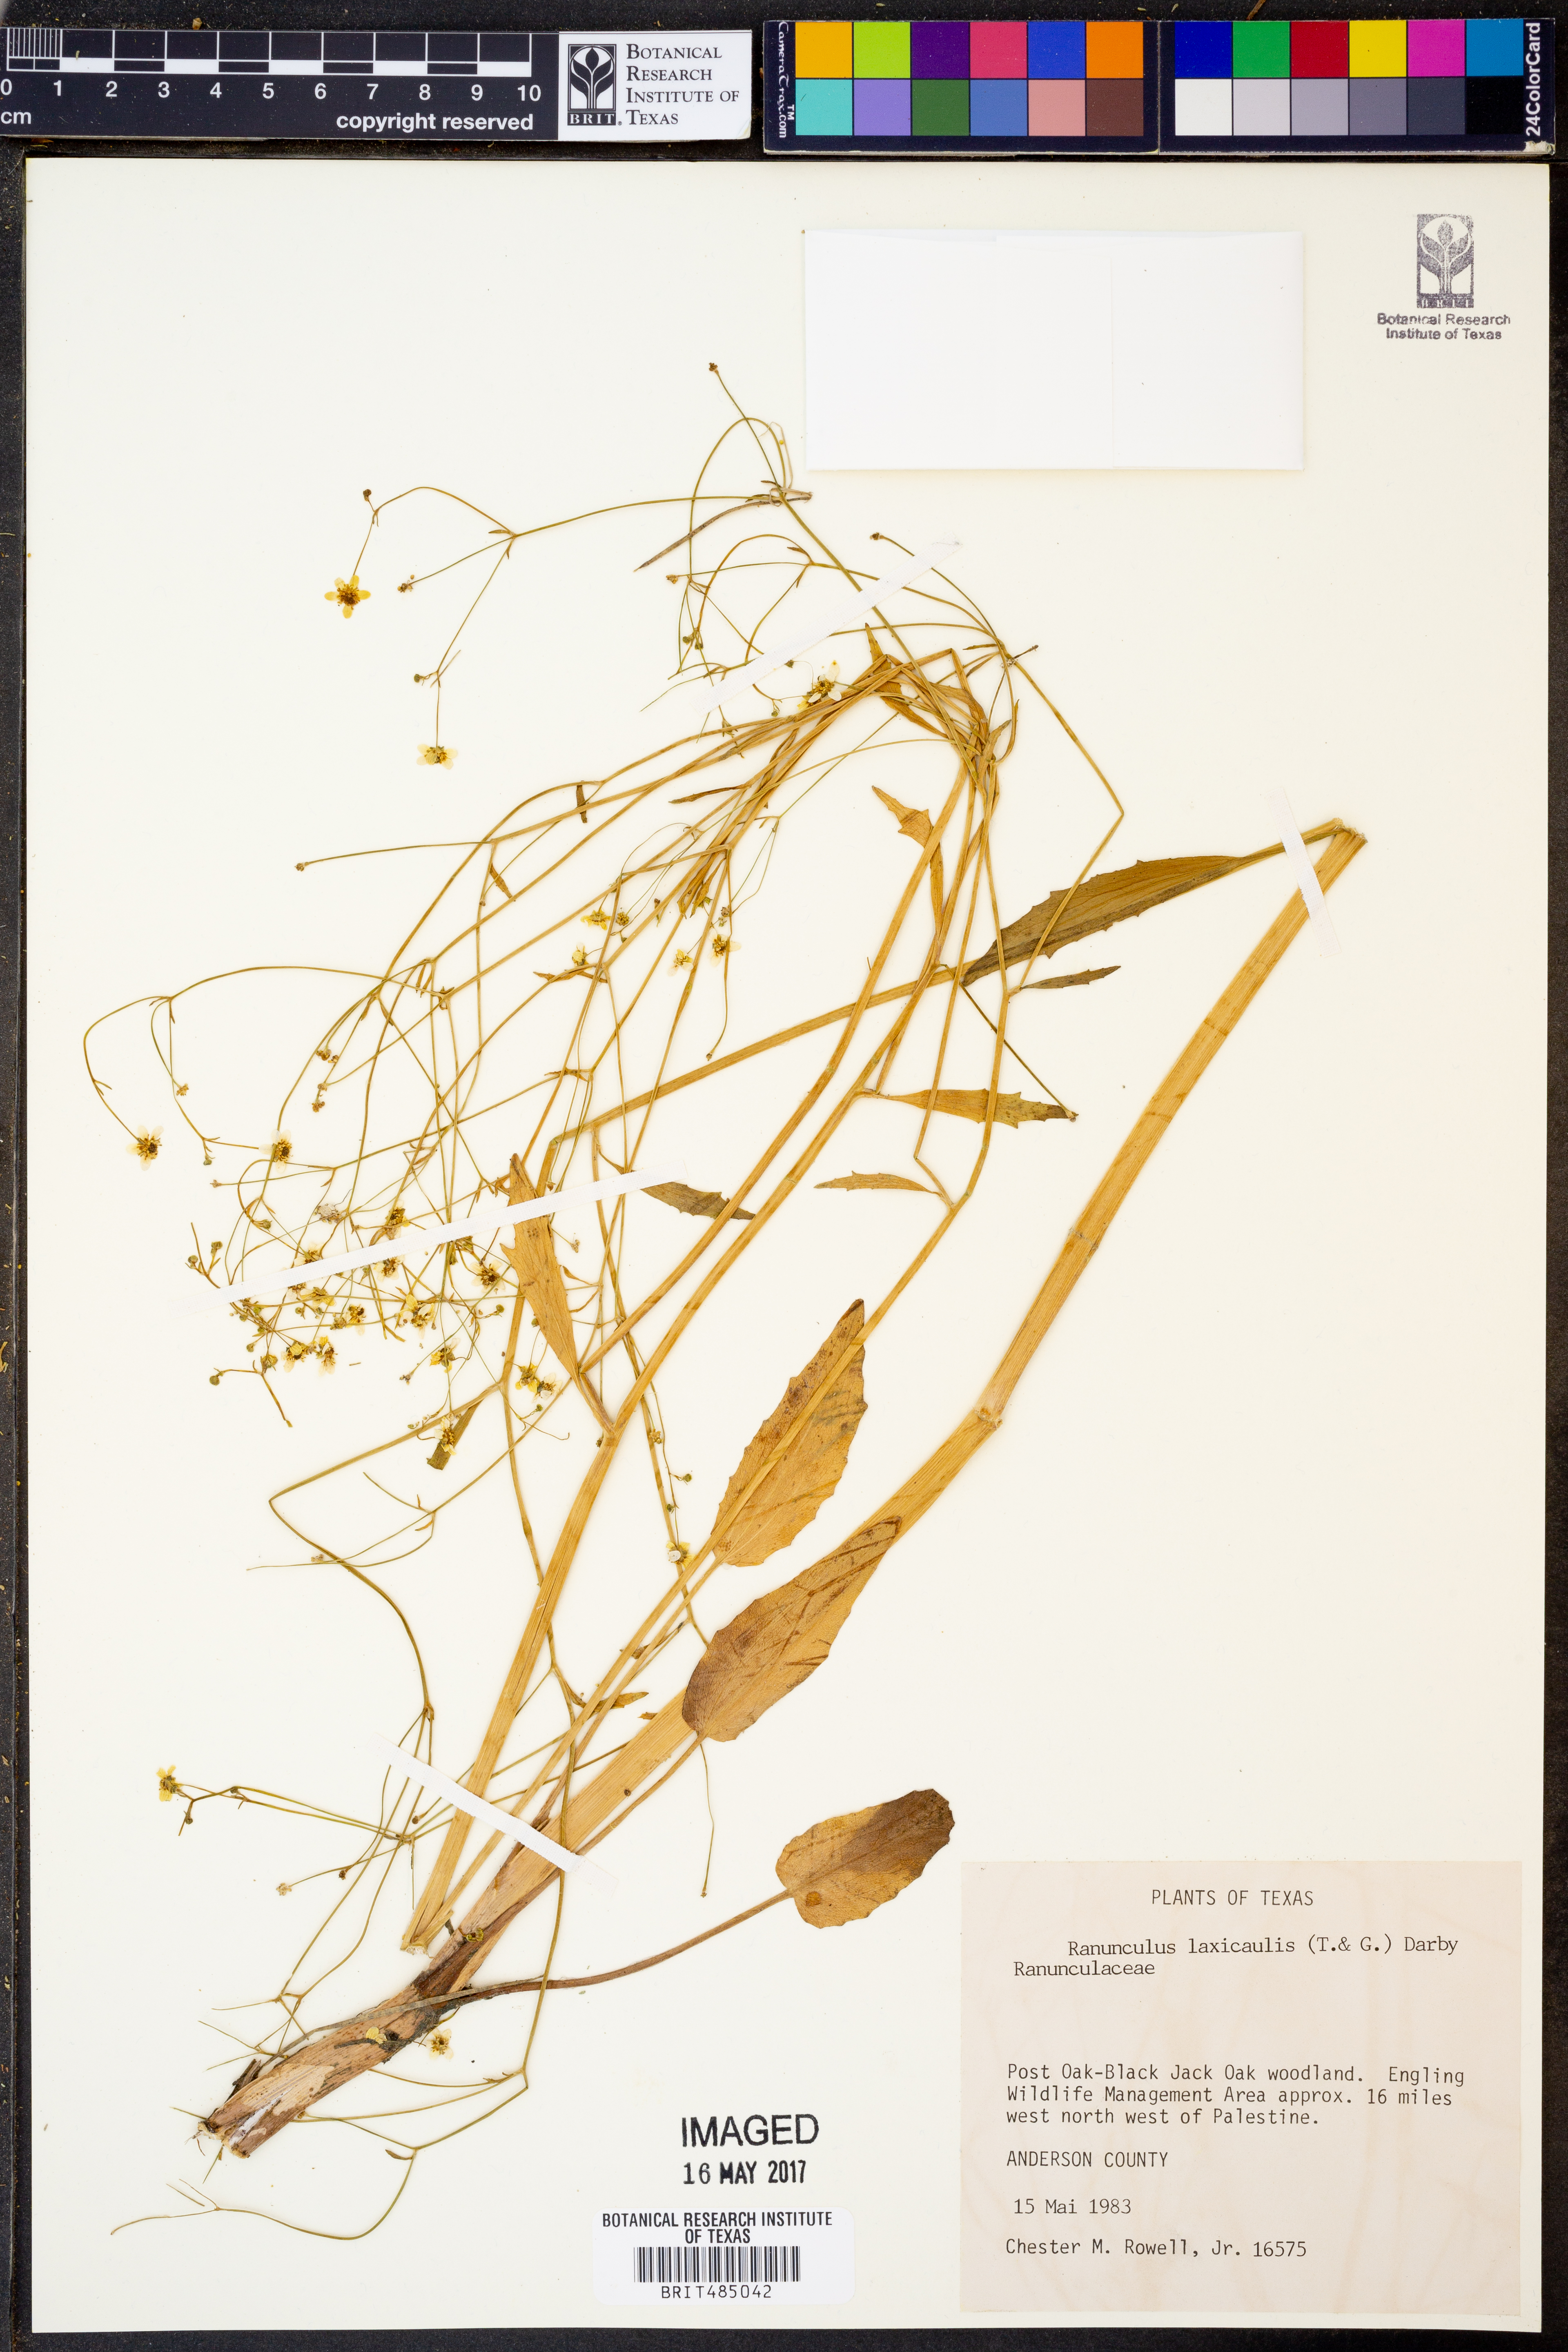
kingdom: Plantae
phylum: Tracheophyta
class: Magnoliopsida
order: Ranunculales
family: Ranunculaceae
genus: Ranunculus
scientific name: Ranunculus laxicaulis
